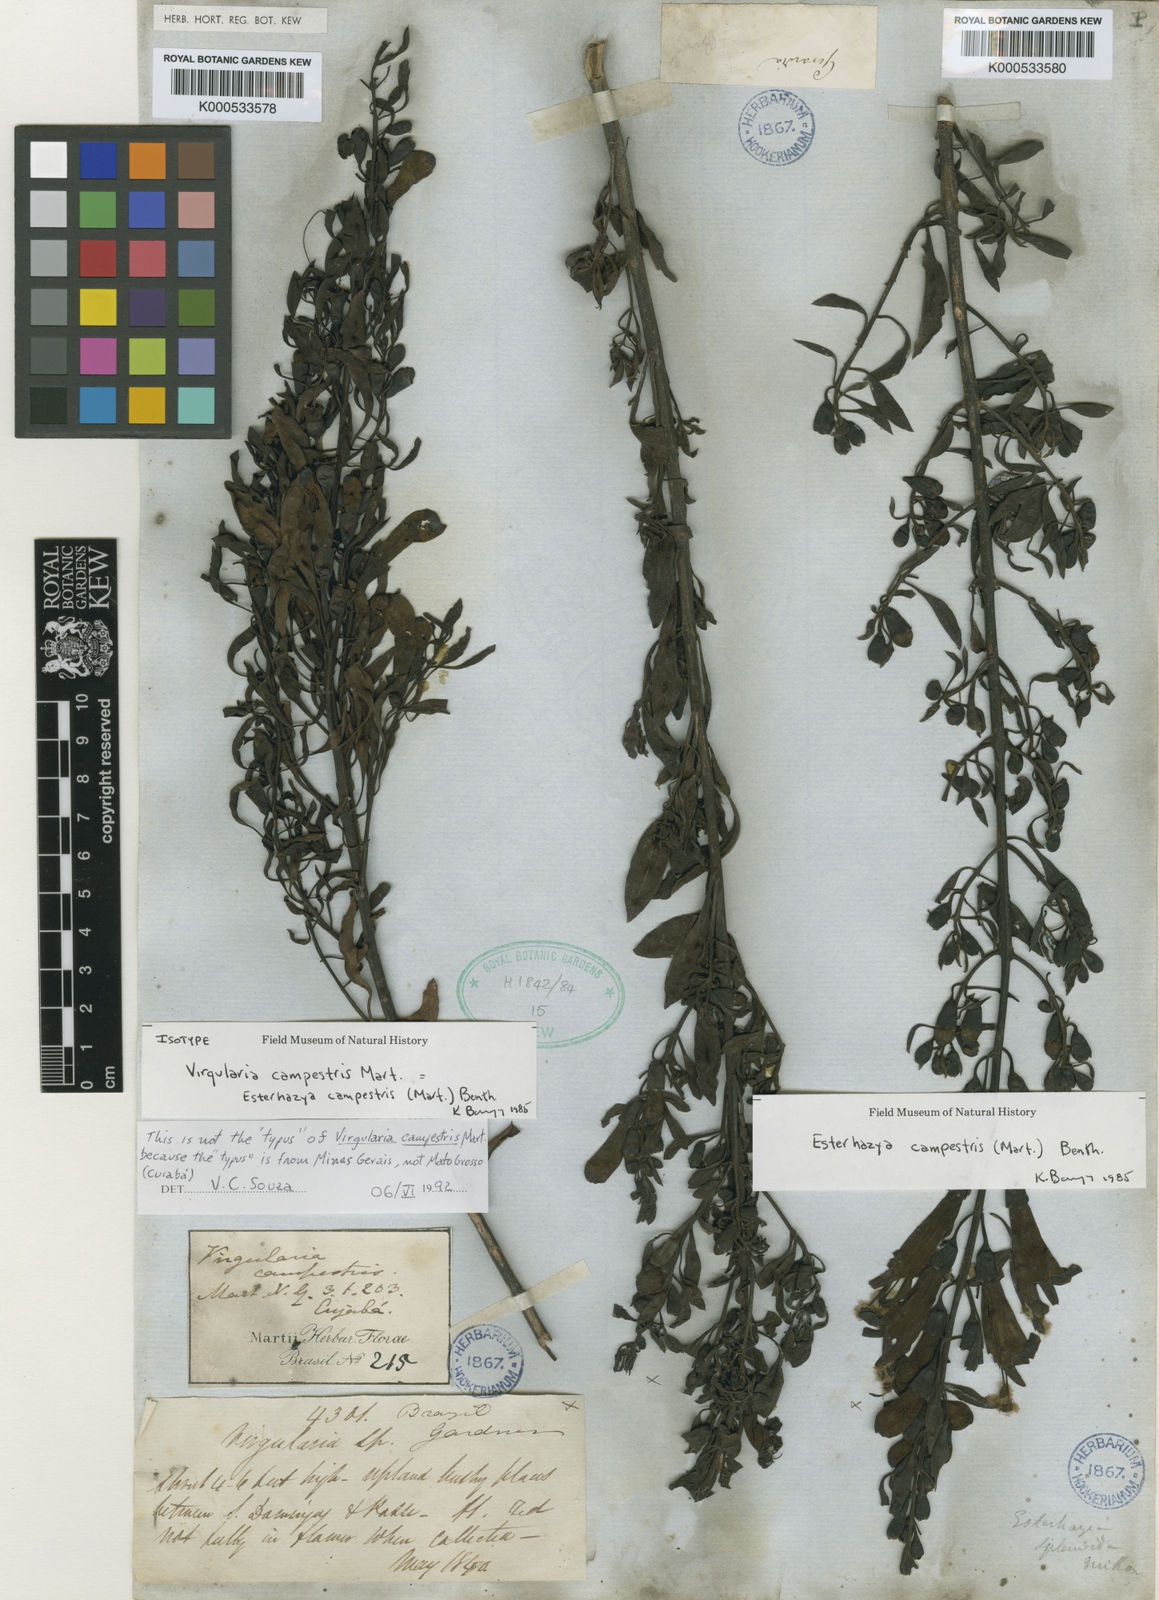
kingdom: Plantae
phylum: Tracheophyta
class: Magnoliopsida
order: Lamiales
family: Orobanchaceae
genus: Esterhazya
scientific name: Esterhazya splendida
